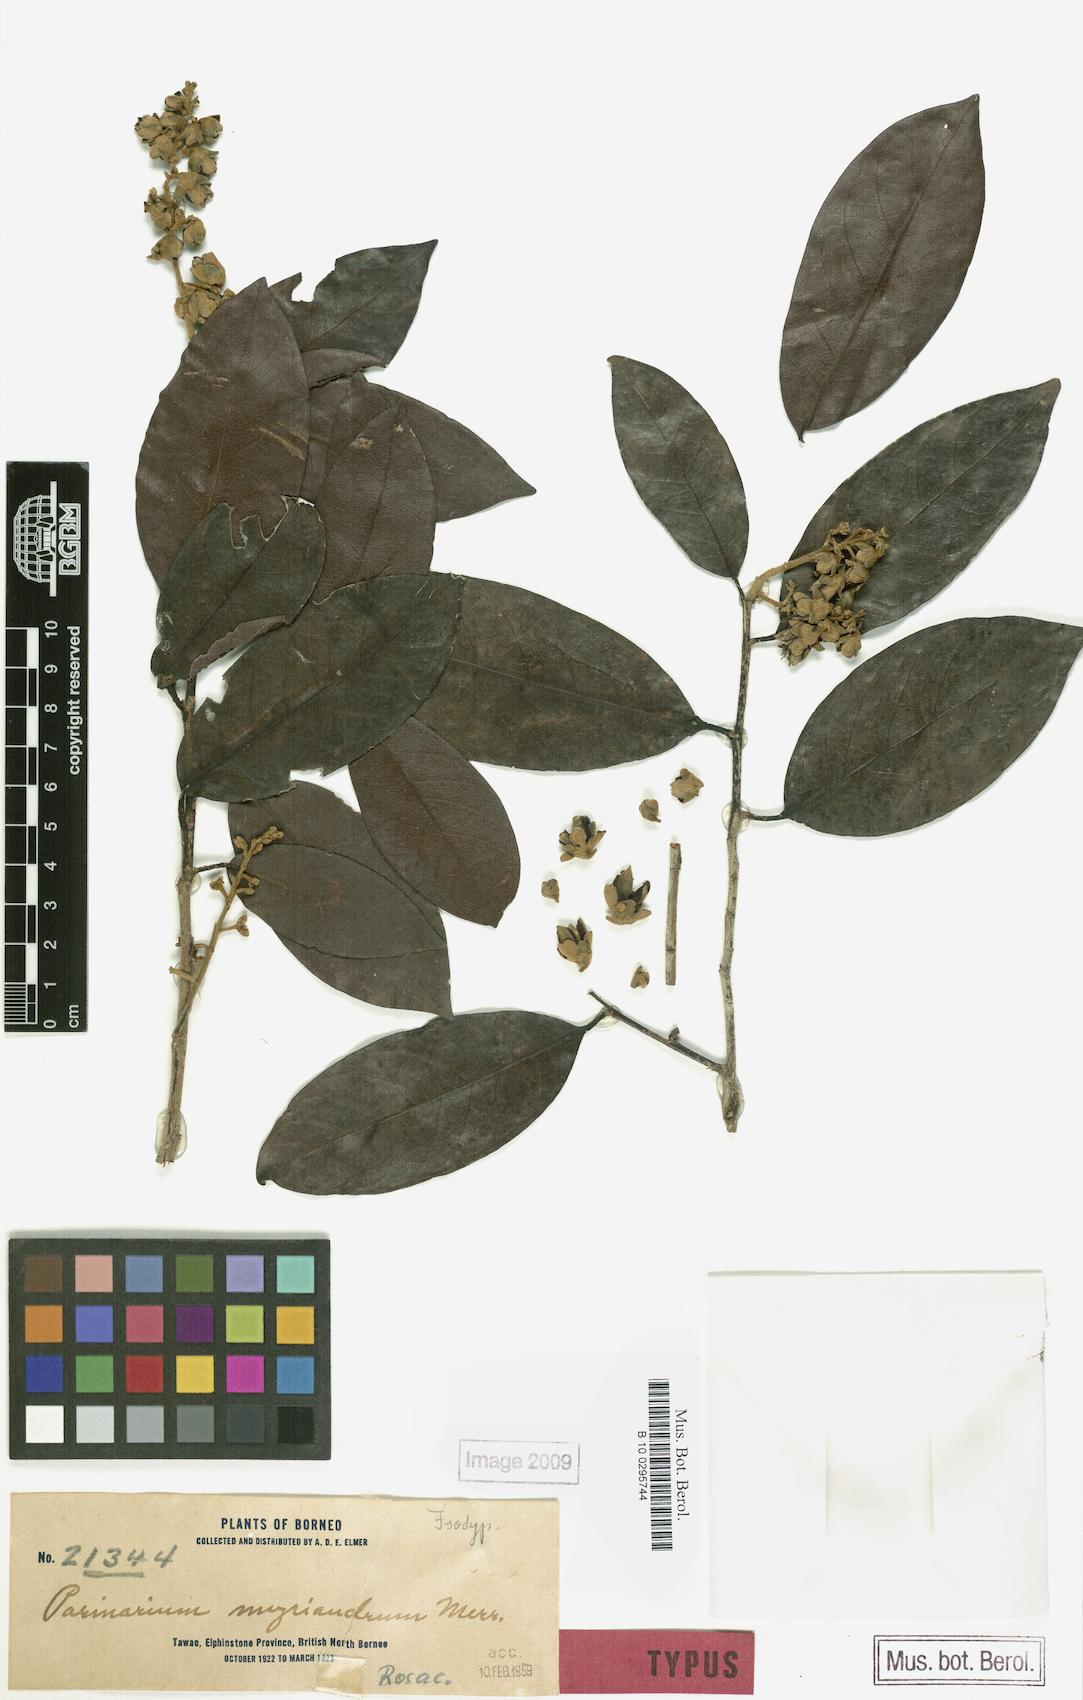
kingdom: Plantae
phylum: Tracheophyta
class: Magnoliopsida
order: Malpighiales
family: Chrysobalanaceae
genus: Kostermanthus
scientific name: Kostermanthus heteropetalus
